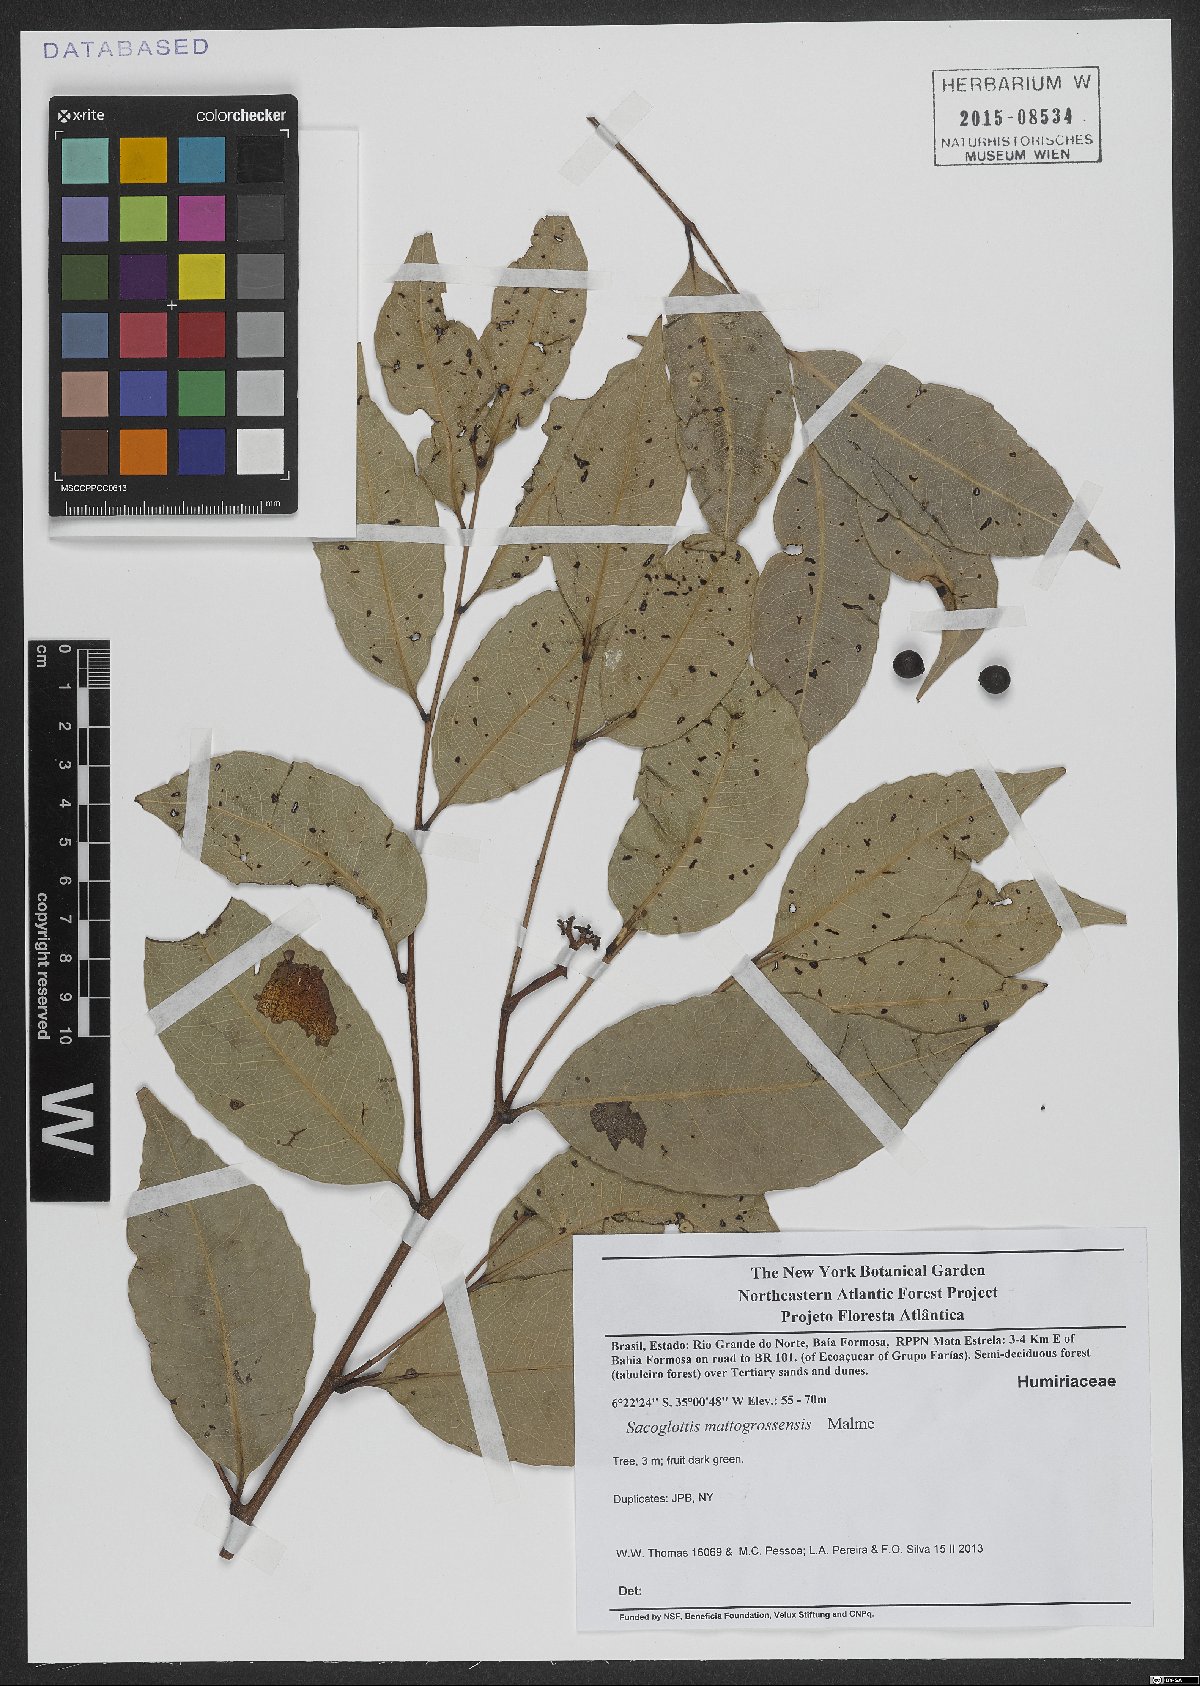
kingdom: Plantae
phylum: Tracheophyta
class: Magnoliopsida
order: Malpighiales
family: Humiriaceae
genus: Sacoglottis
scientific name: Sacoglottis mattogrossensis
